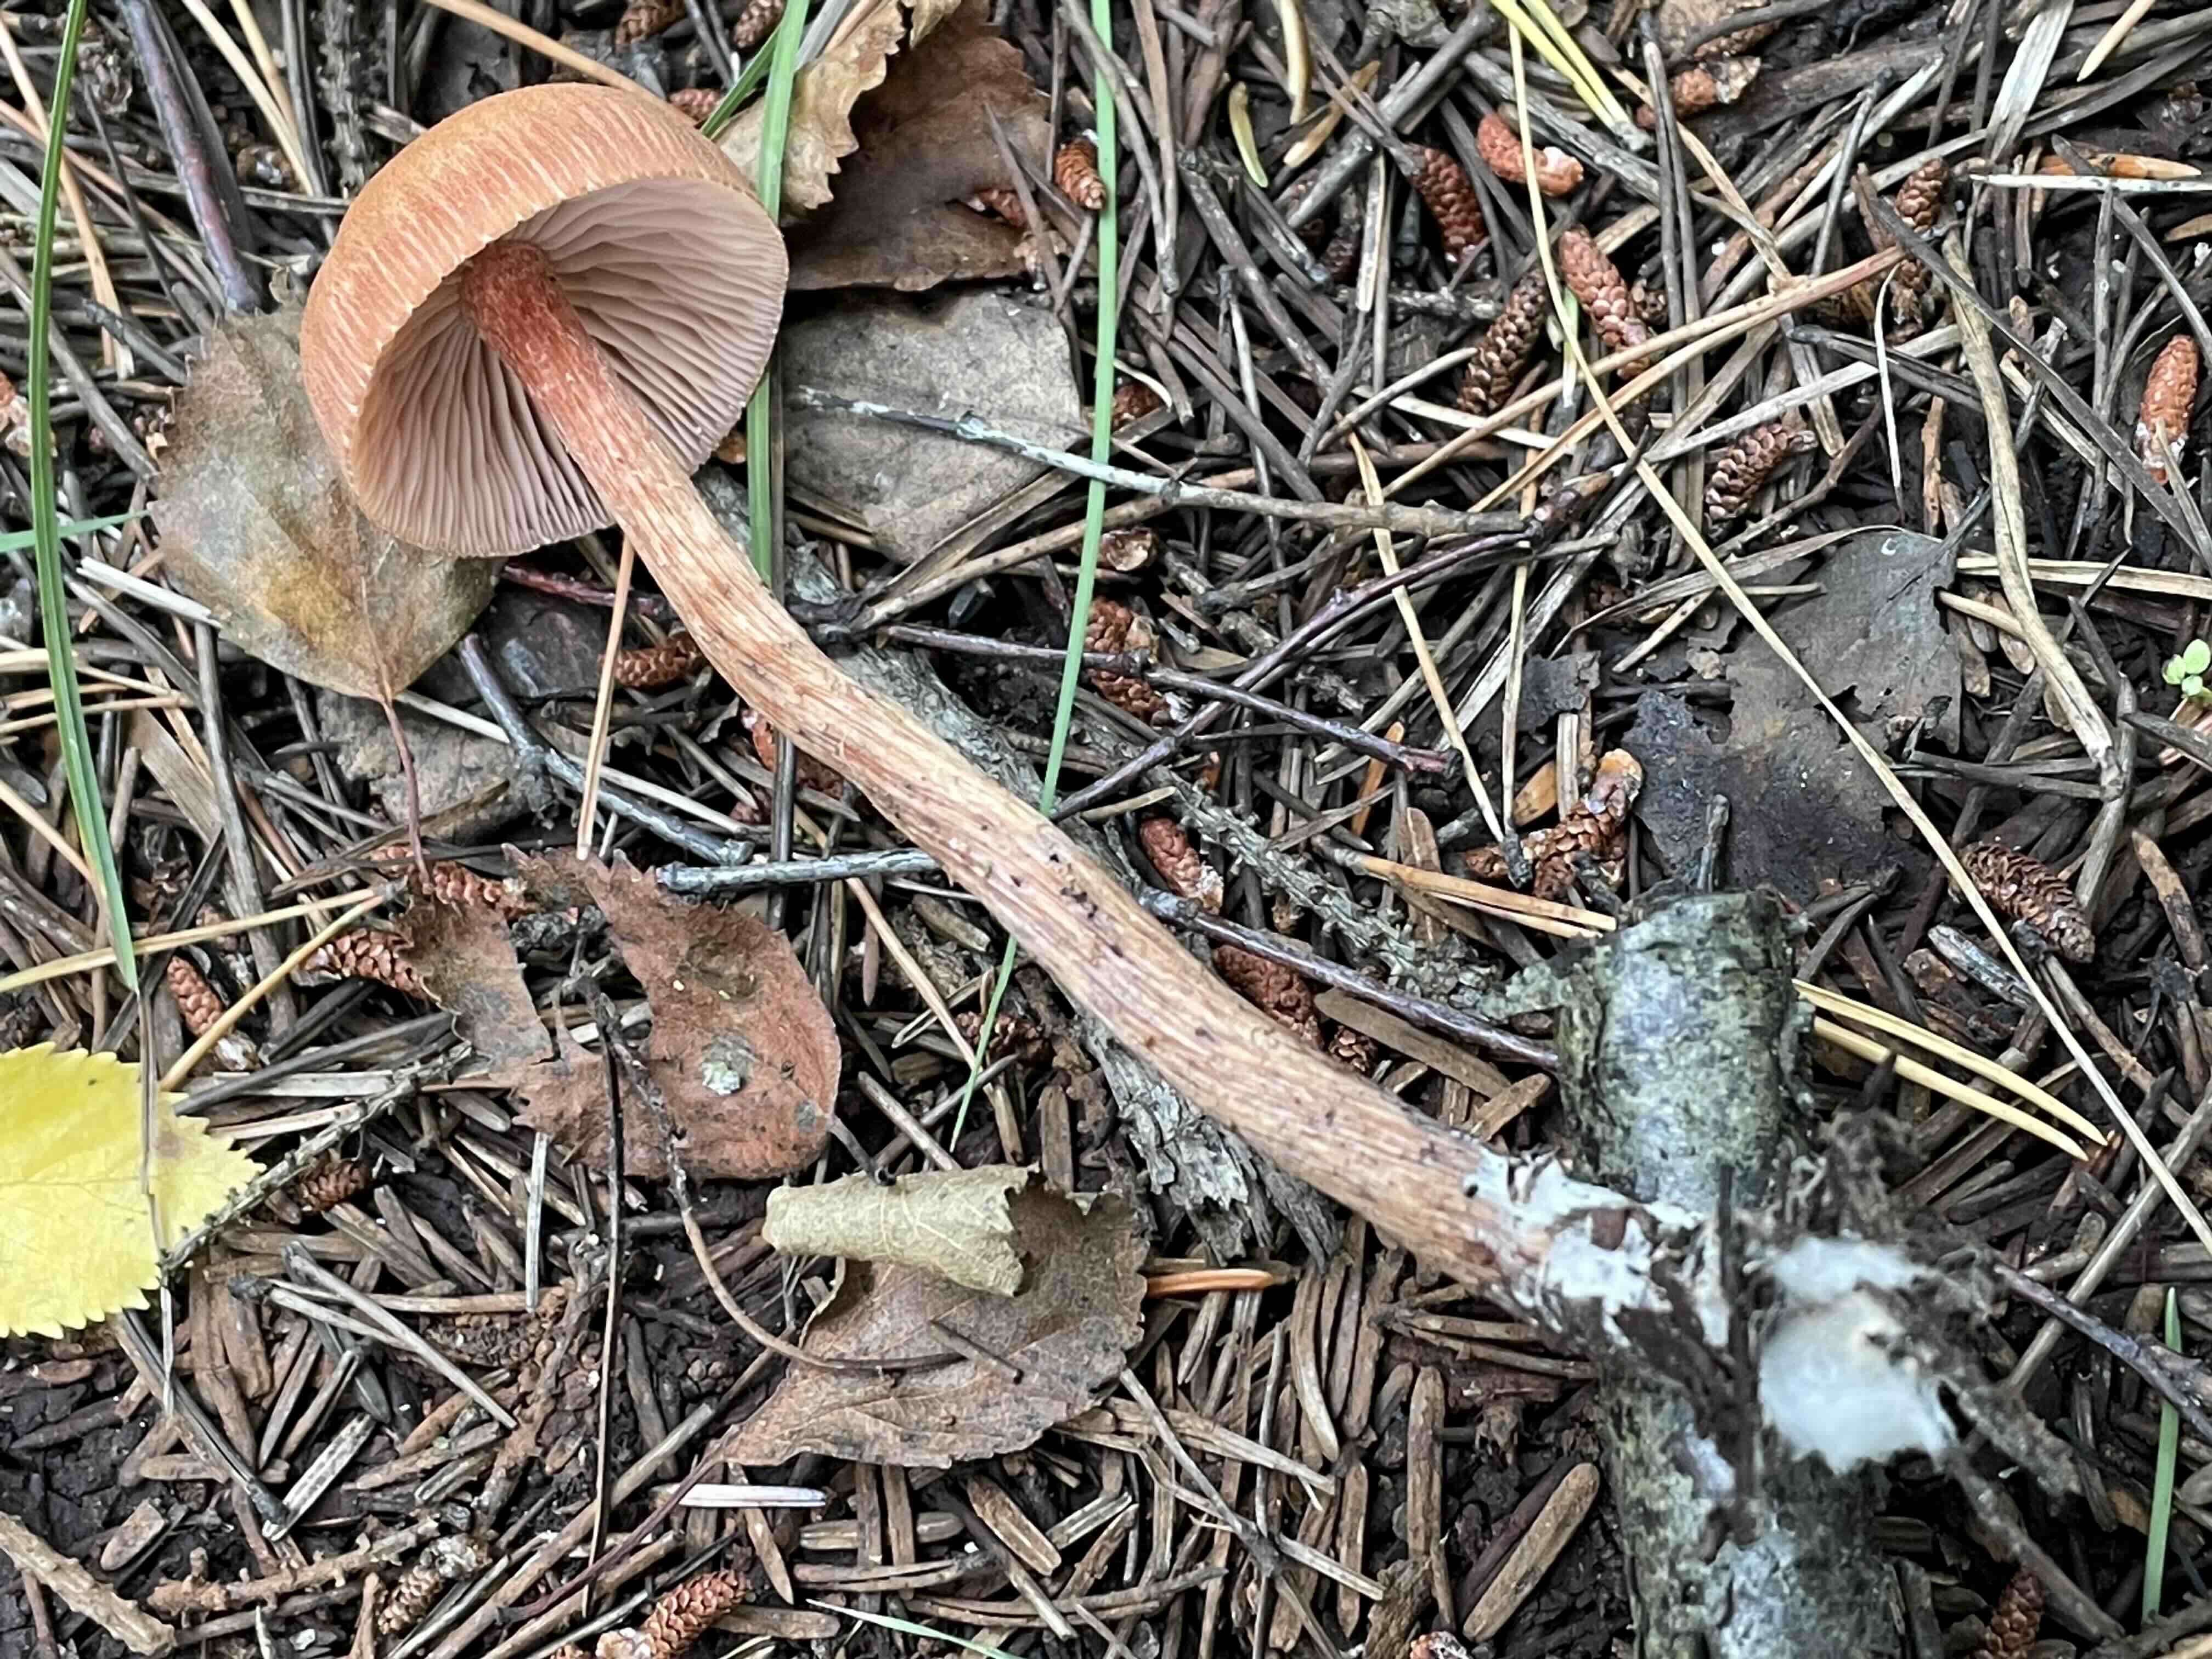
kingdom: Fungi
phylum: Basidiomycota
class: Agaricomycetes
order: Agaricales
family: Hydnangiaceae
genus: Laccaria
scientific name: Laccaria proxima
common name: stor ametysthat
